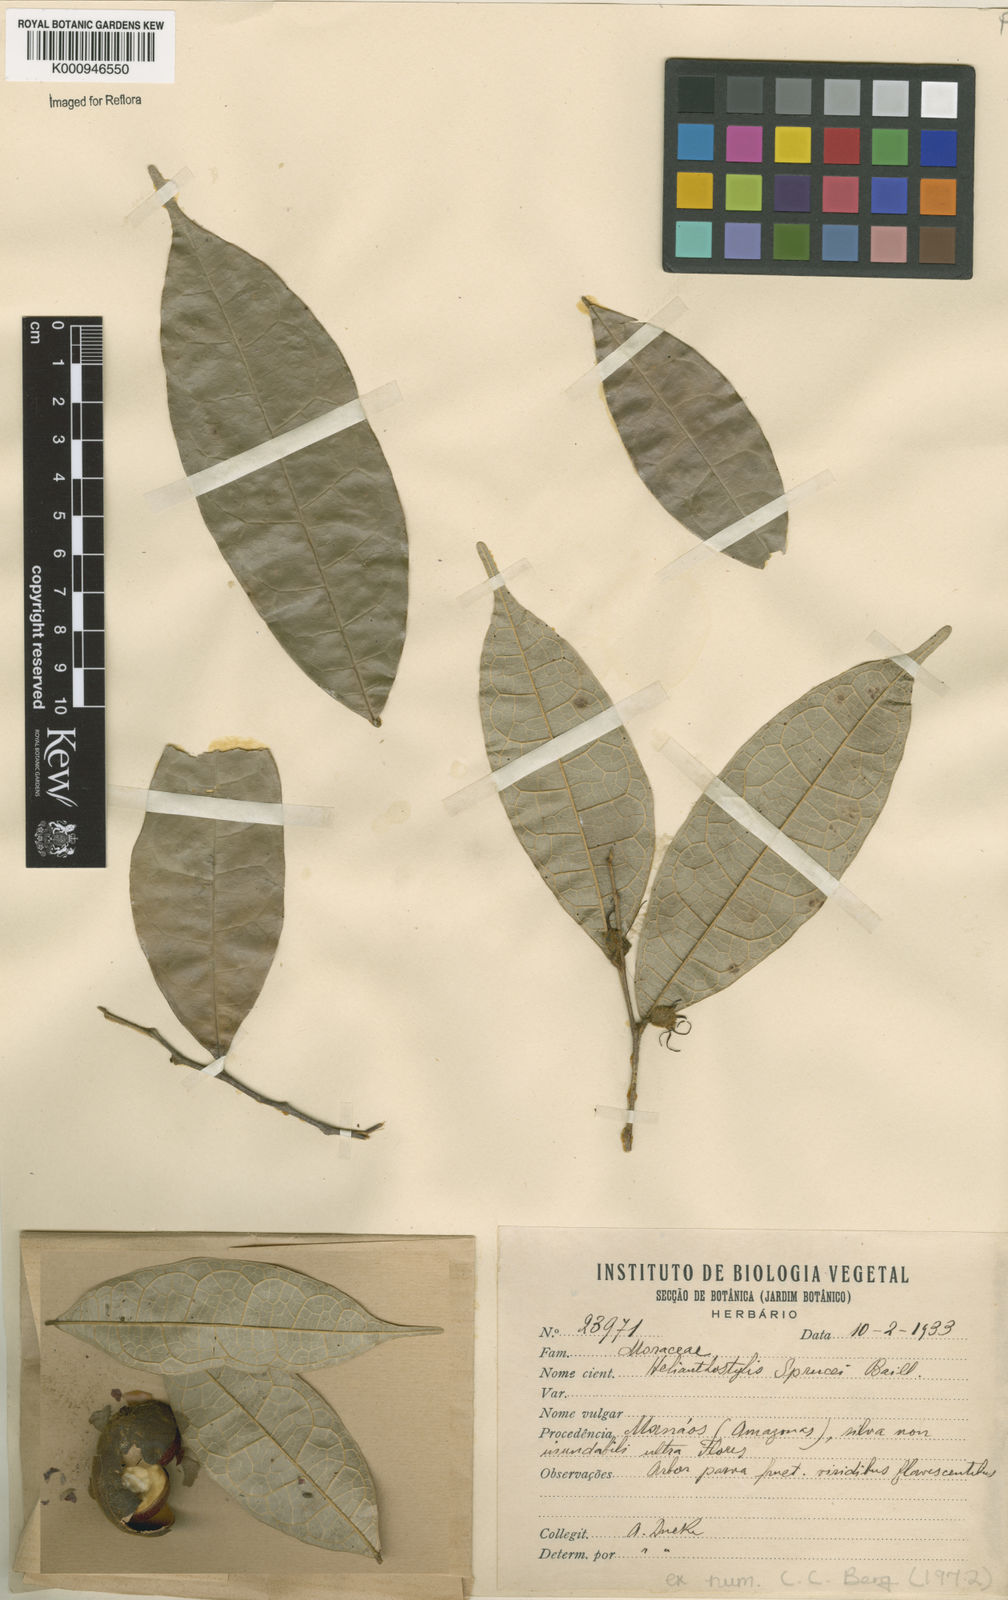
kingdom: Plantae
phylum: Tracheophyta
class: Magnoliopsida
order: Rosales
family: Moraceae
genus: Brosimum
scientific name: Brosimum sprucei
